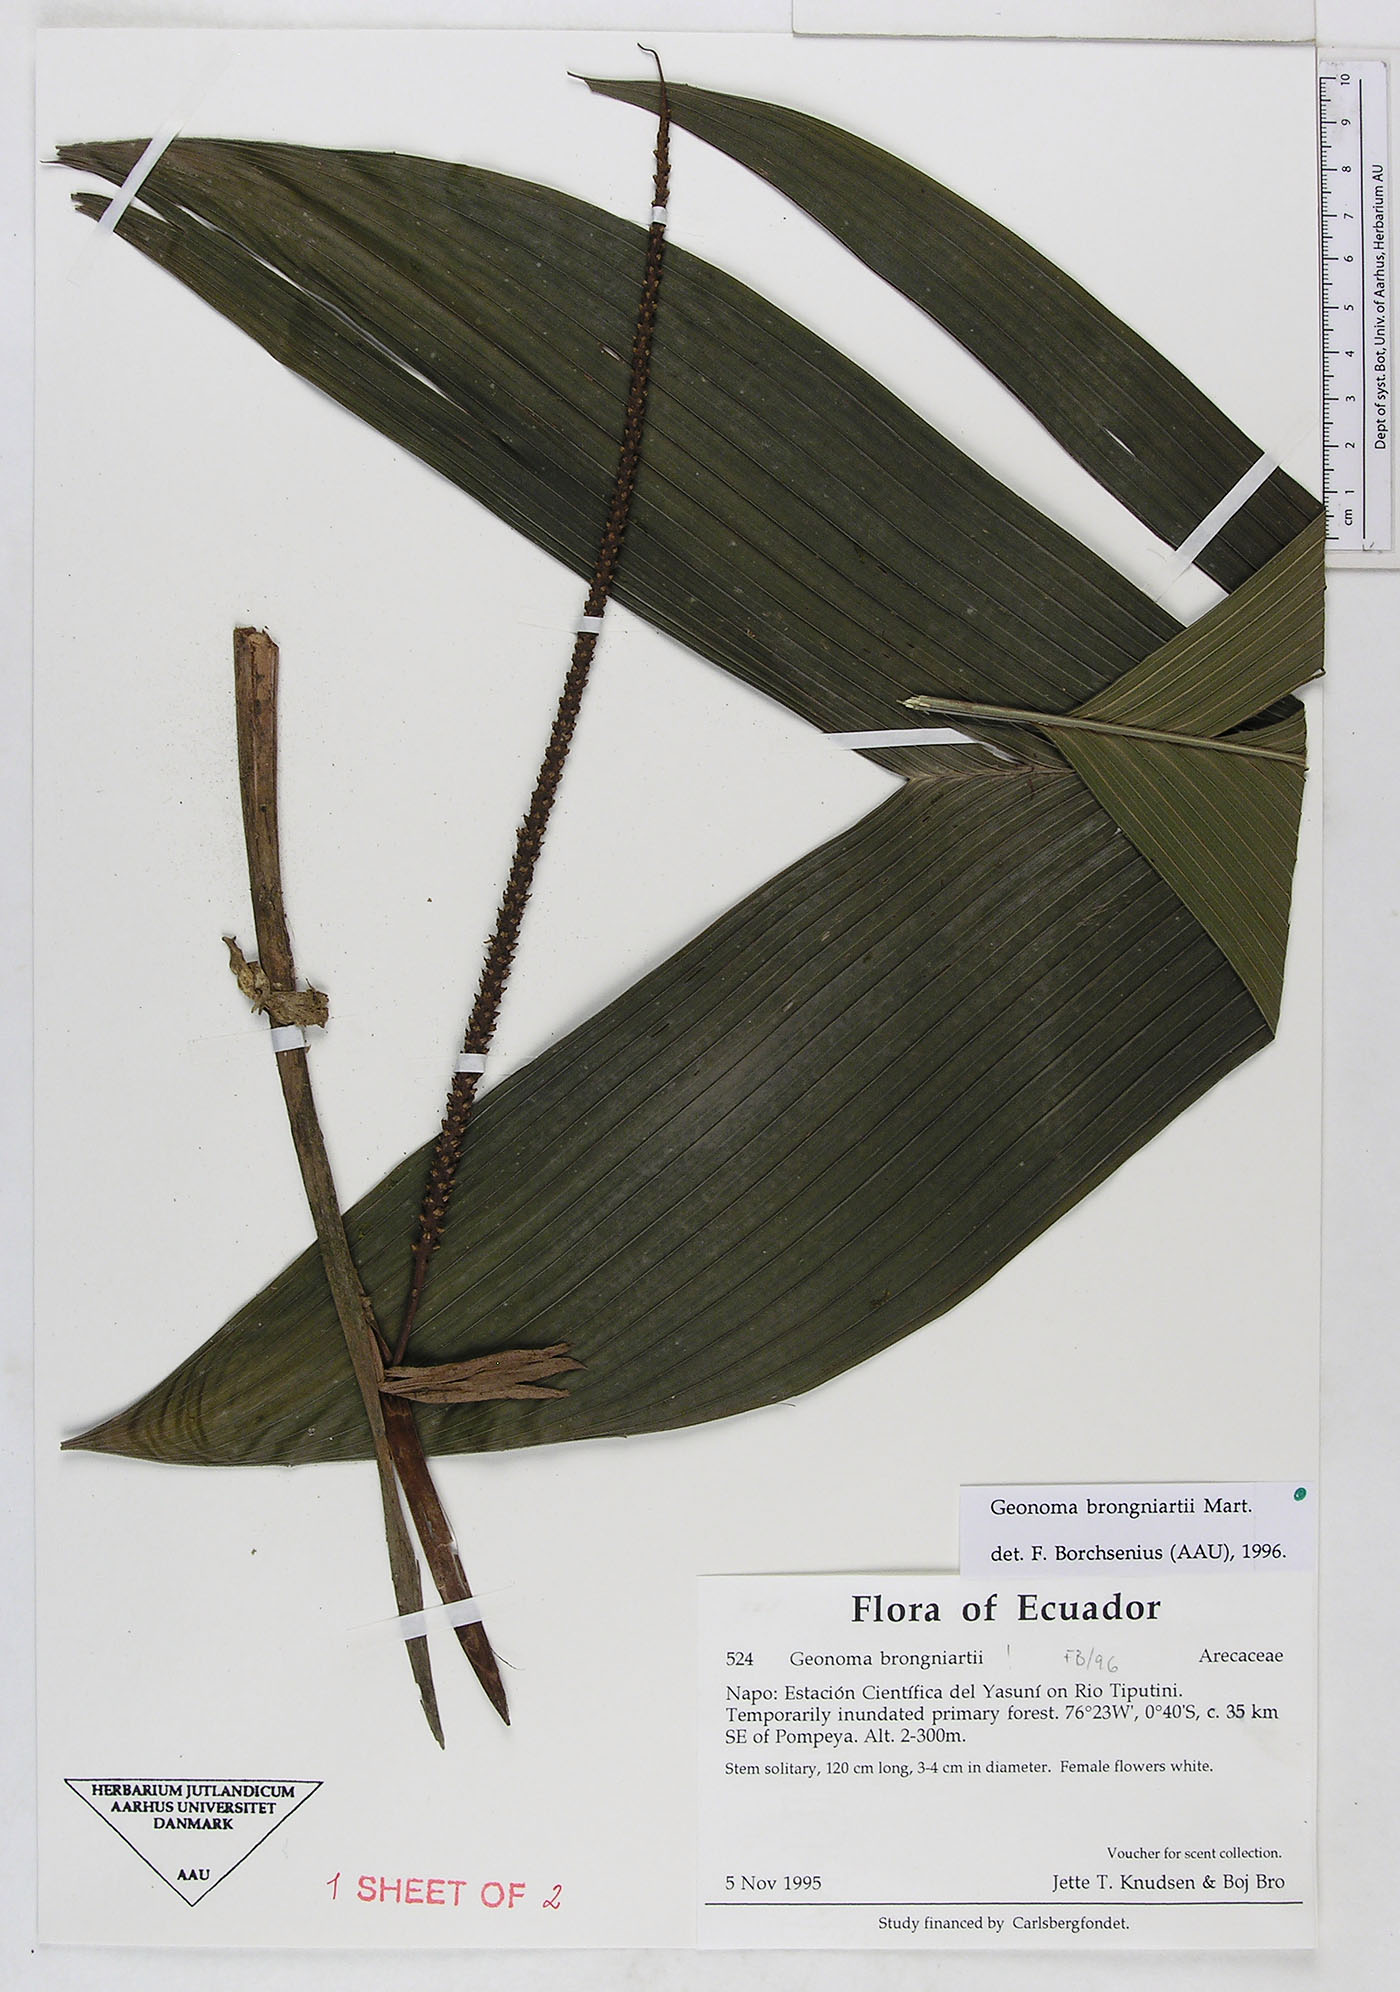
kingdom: Plantae
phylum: Tracheophyta
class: Liliopsida
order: Arecales
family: Arecaceae
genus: Geonoma
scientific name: Geonoma brongniartii
